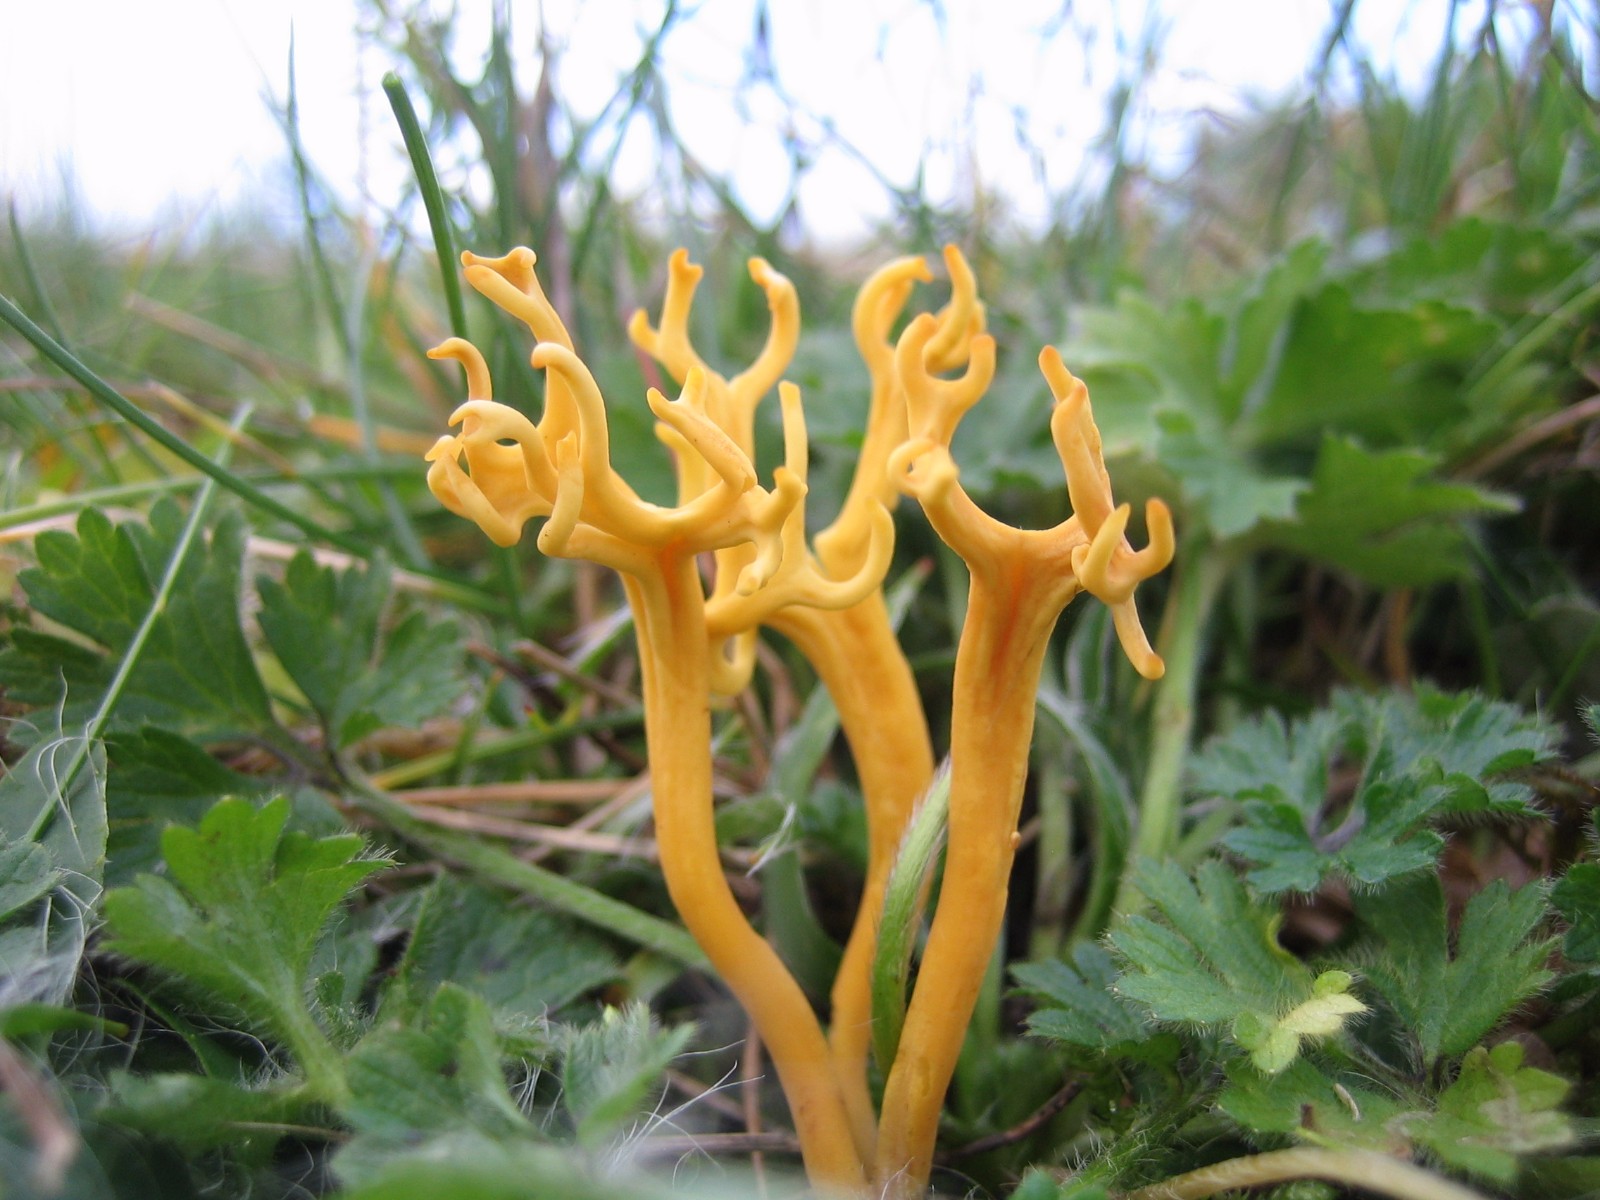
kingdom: Fungi
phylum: Basidiomycota
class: Agaricomycetes
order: Agaricales
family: Clavariaceae
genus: Clavulinopsis
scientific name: Clavulinopsis corniculata
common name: eng-køllesvamp
